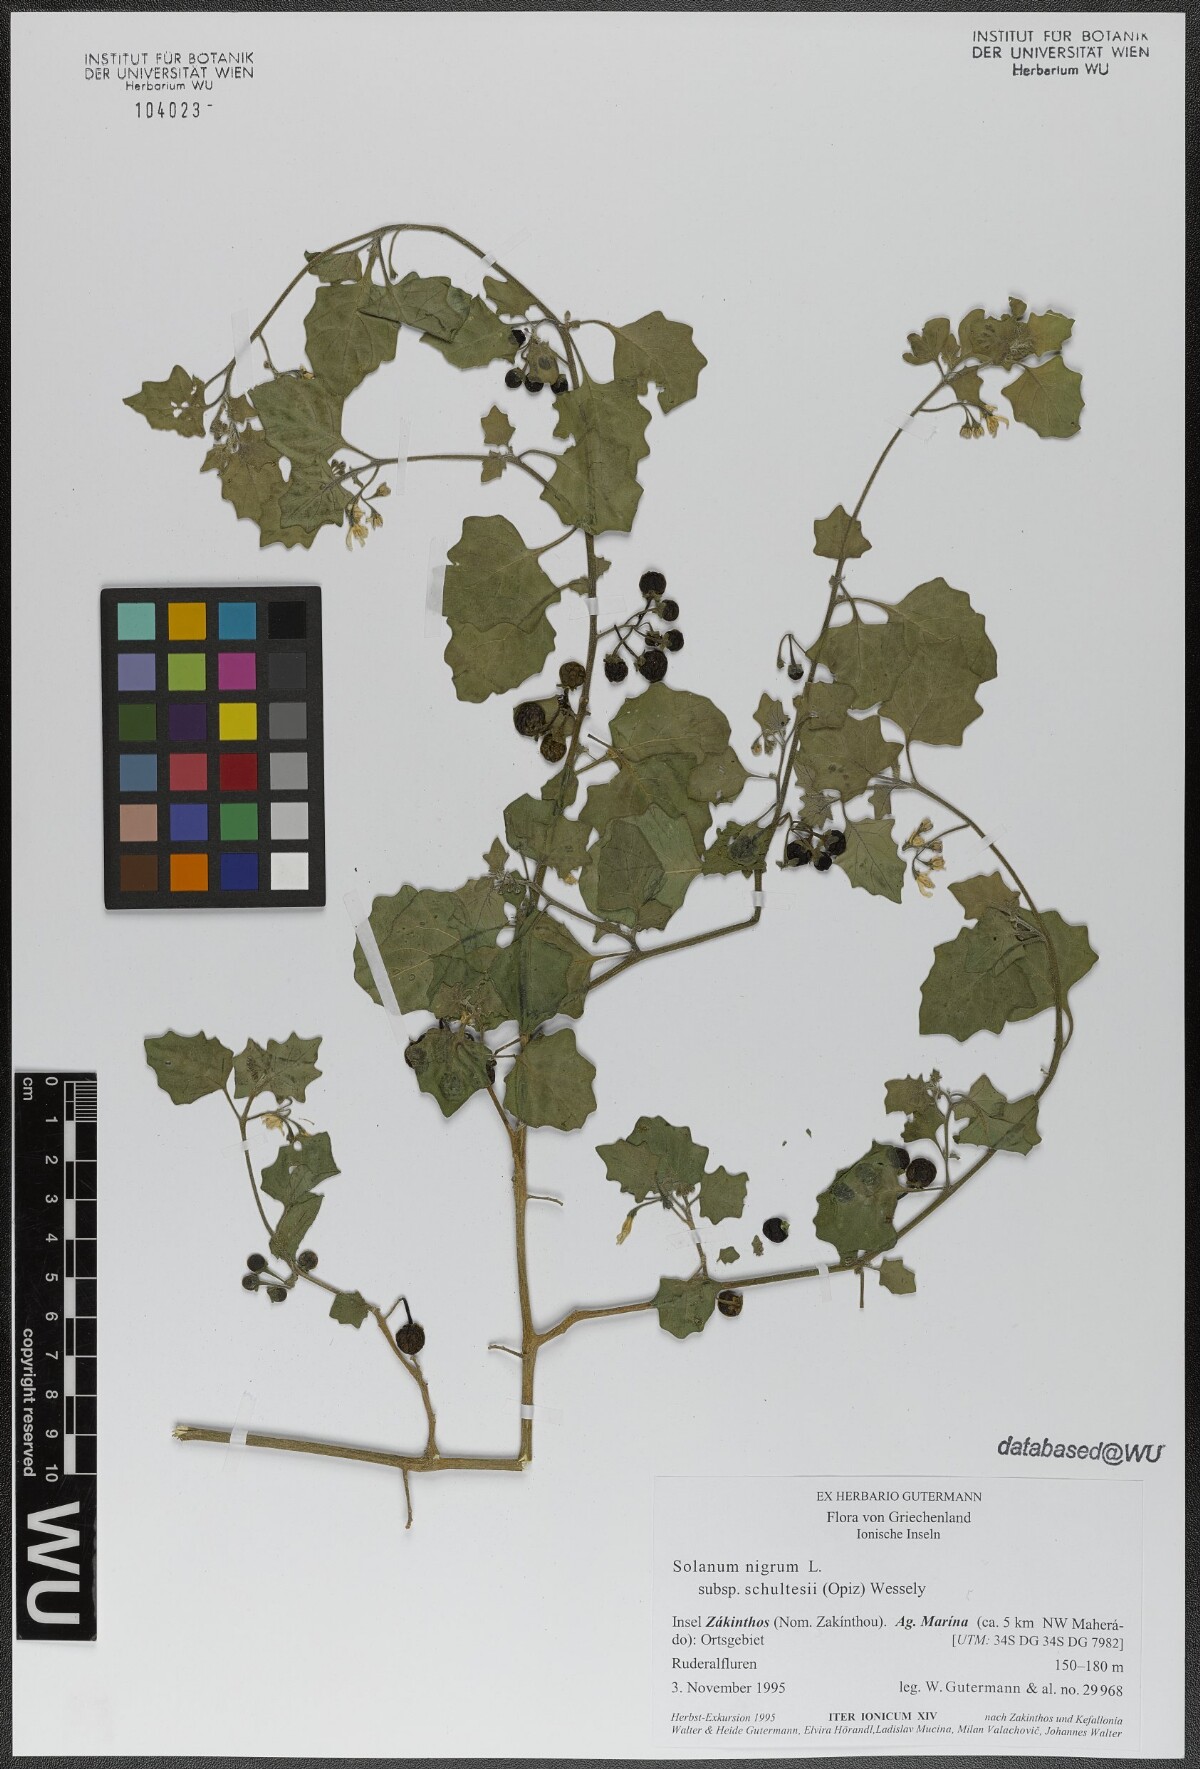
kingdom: Plantae
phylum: Tracheophyta
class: Magnoliopsida
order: Solanales
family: Solanaceae
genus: Solanum
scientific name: Solanum decipiens
